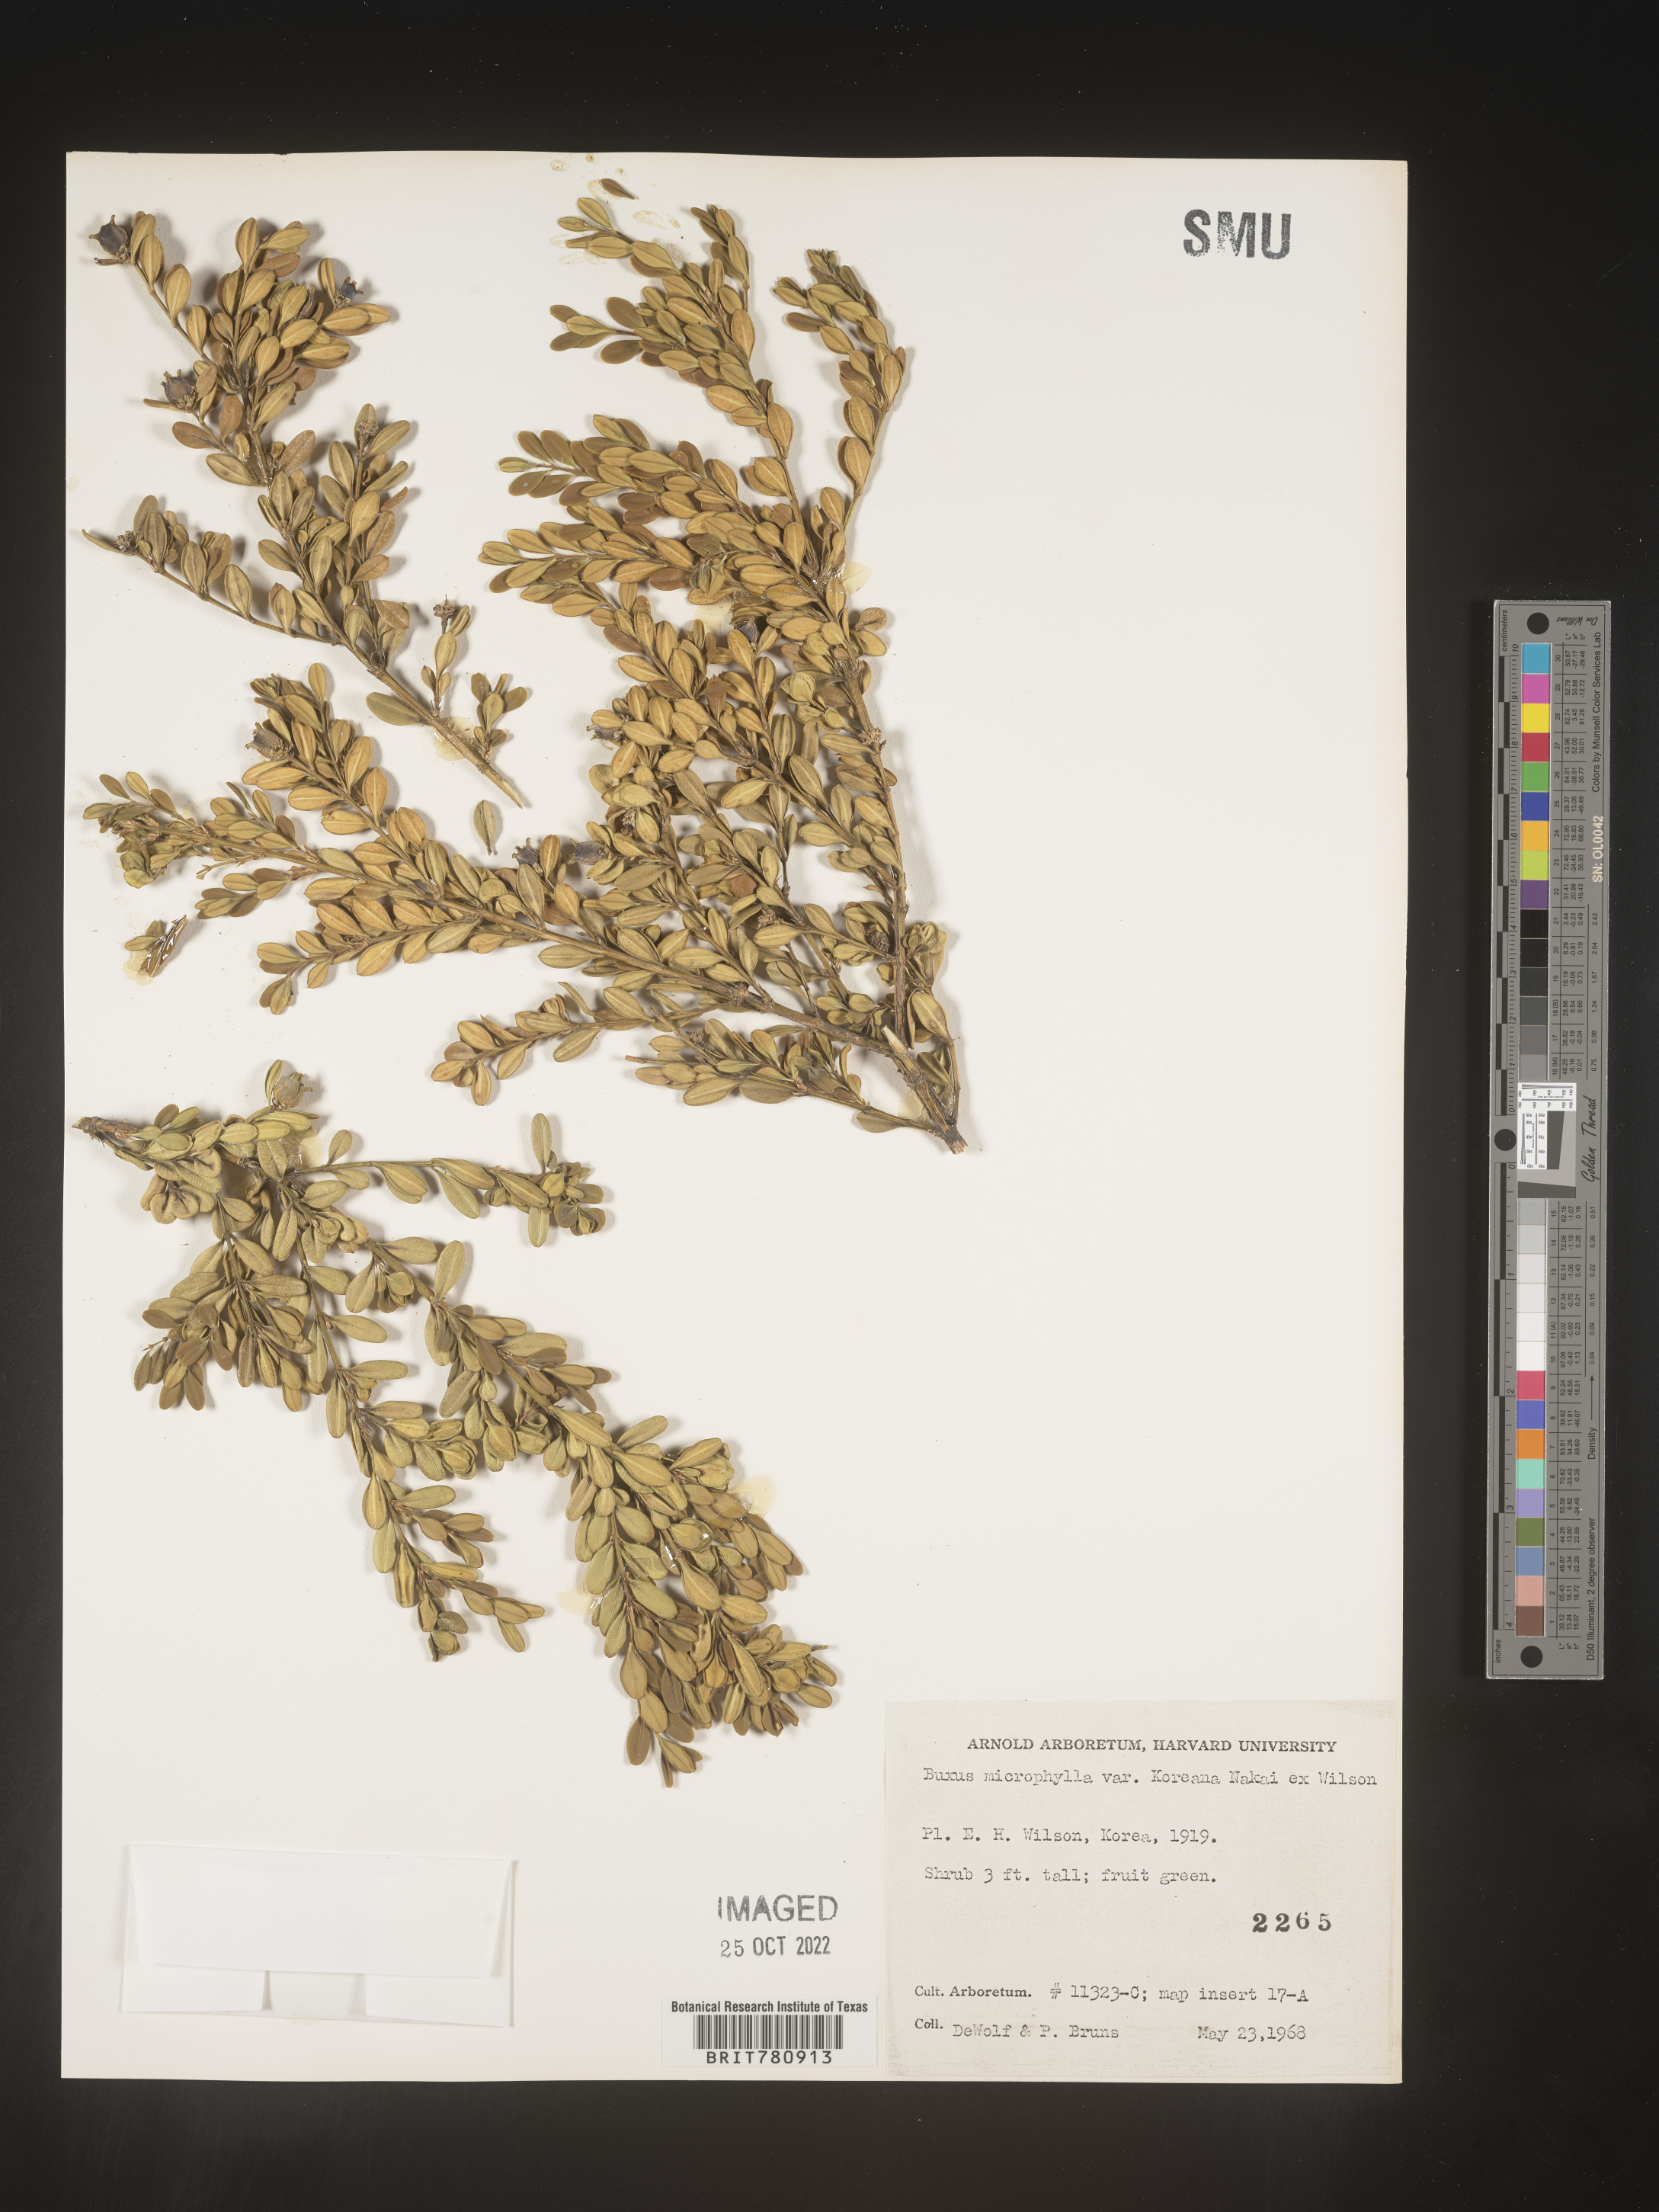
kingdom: Plantae
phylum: Tracheophyta
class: Magnoliopsida
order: Buxales
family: Buxaceae
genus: Buxus
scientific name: Buxus
